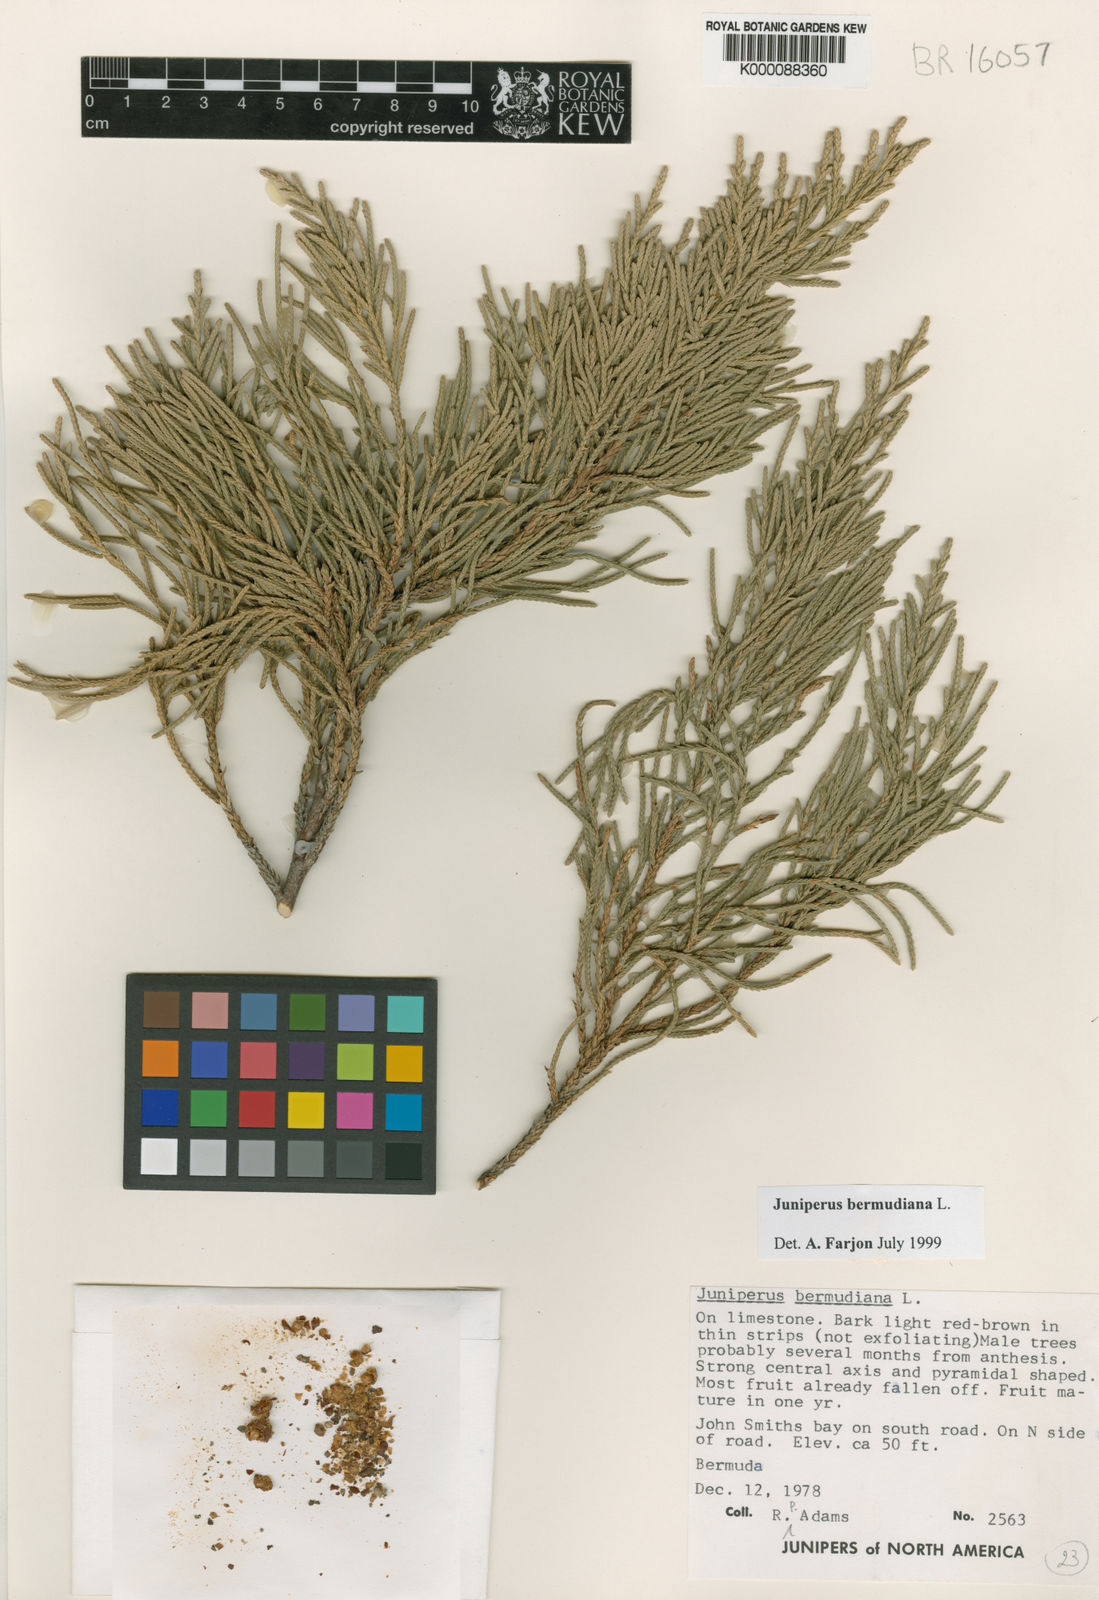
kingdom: Plantae
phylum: Tracheophyta
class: Pinopsida
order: Pinales
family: Cupressaceae
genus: Juniperus
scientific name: Juniperus bermudiana
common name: Bermuda juniper
